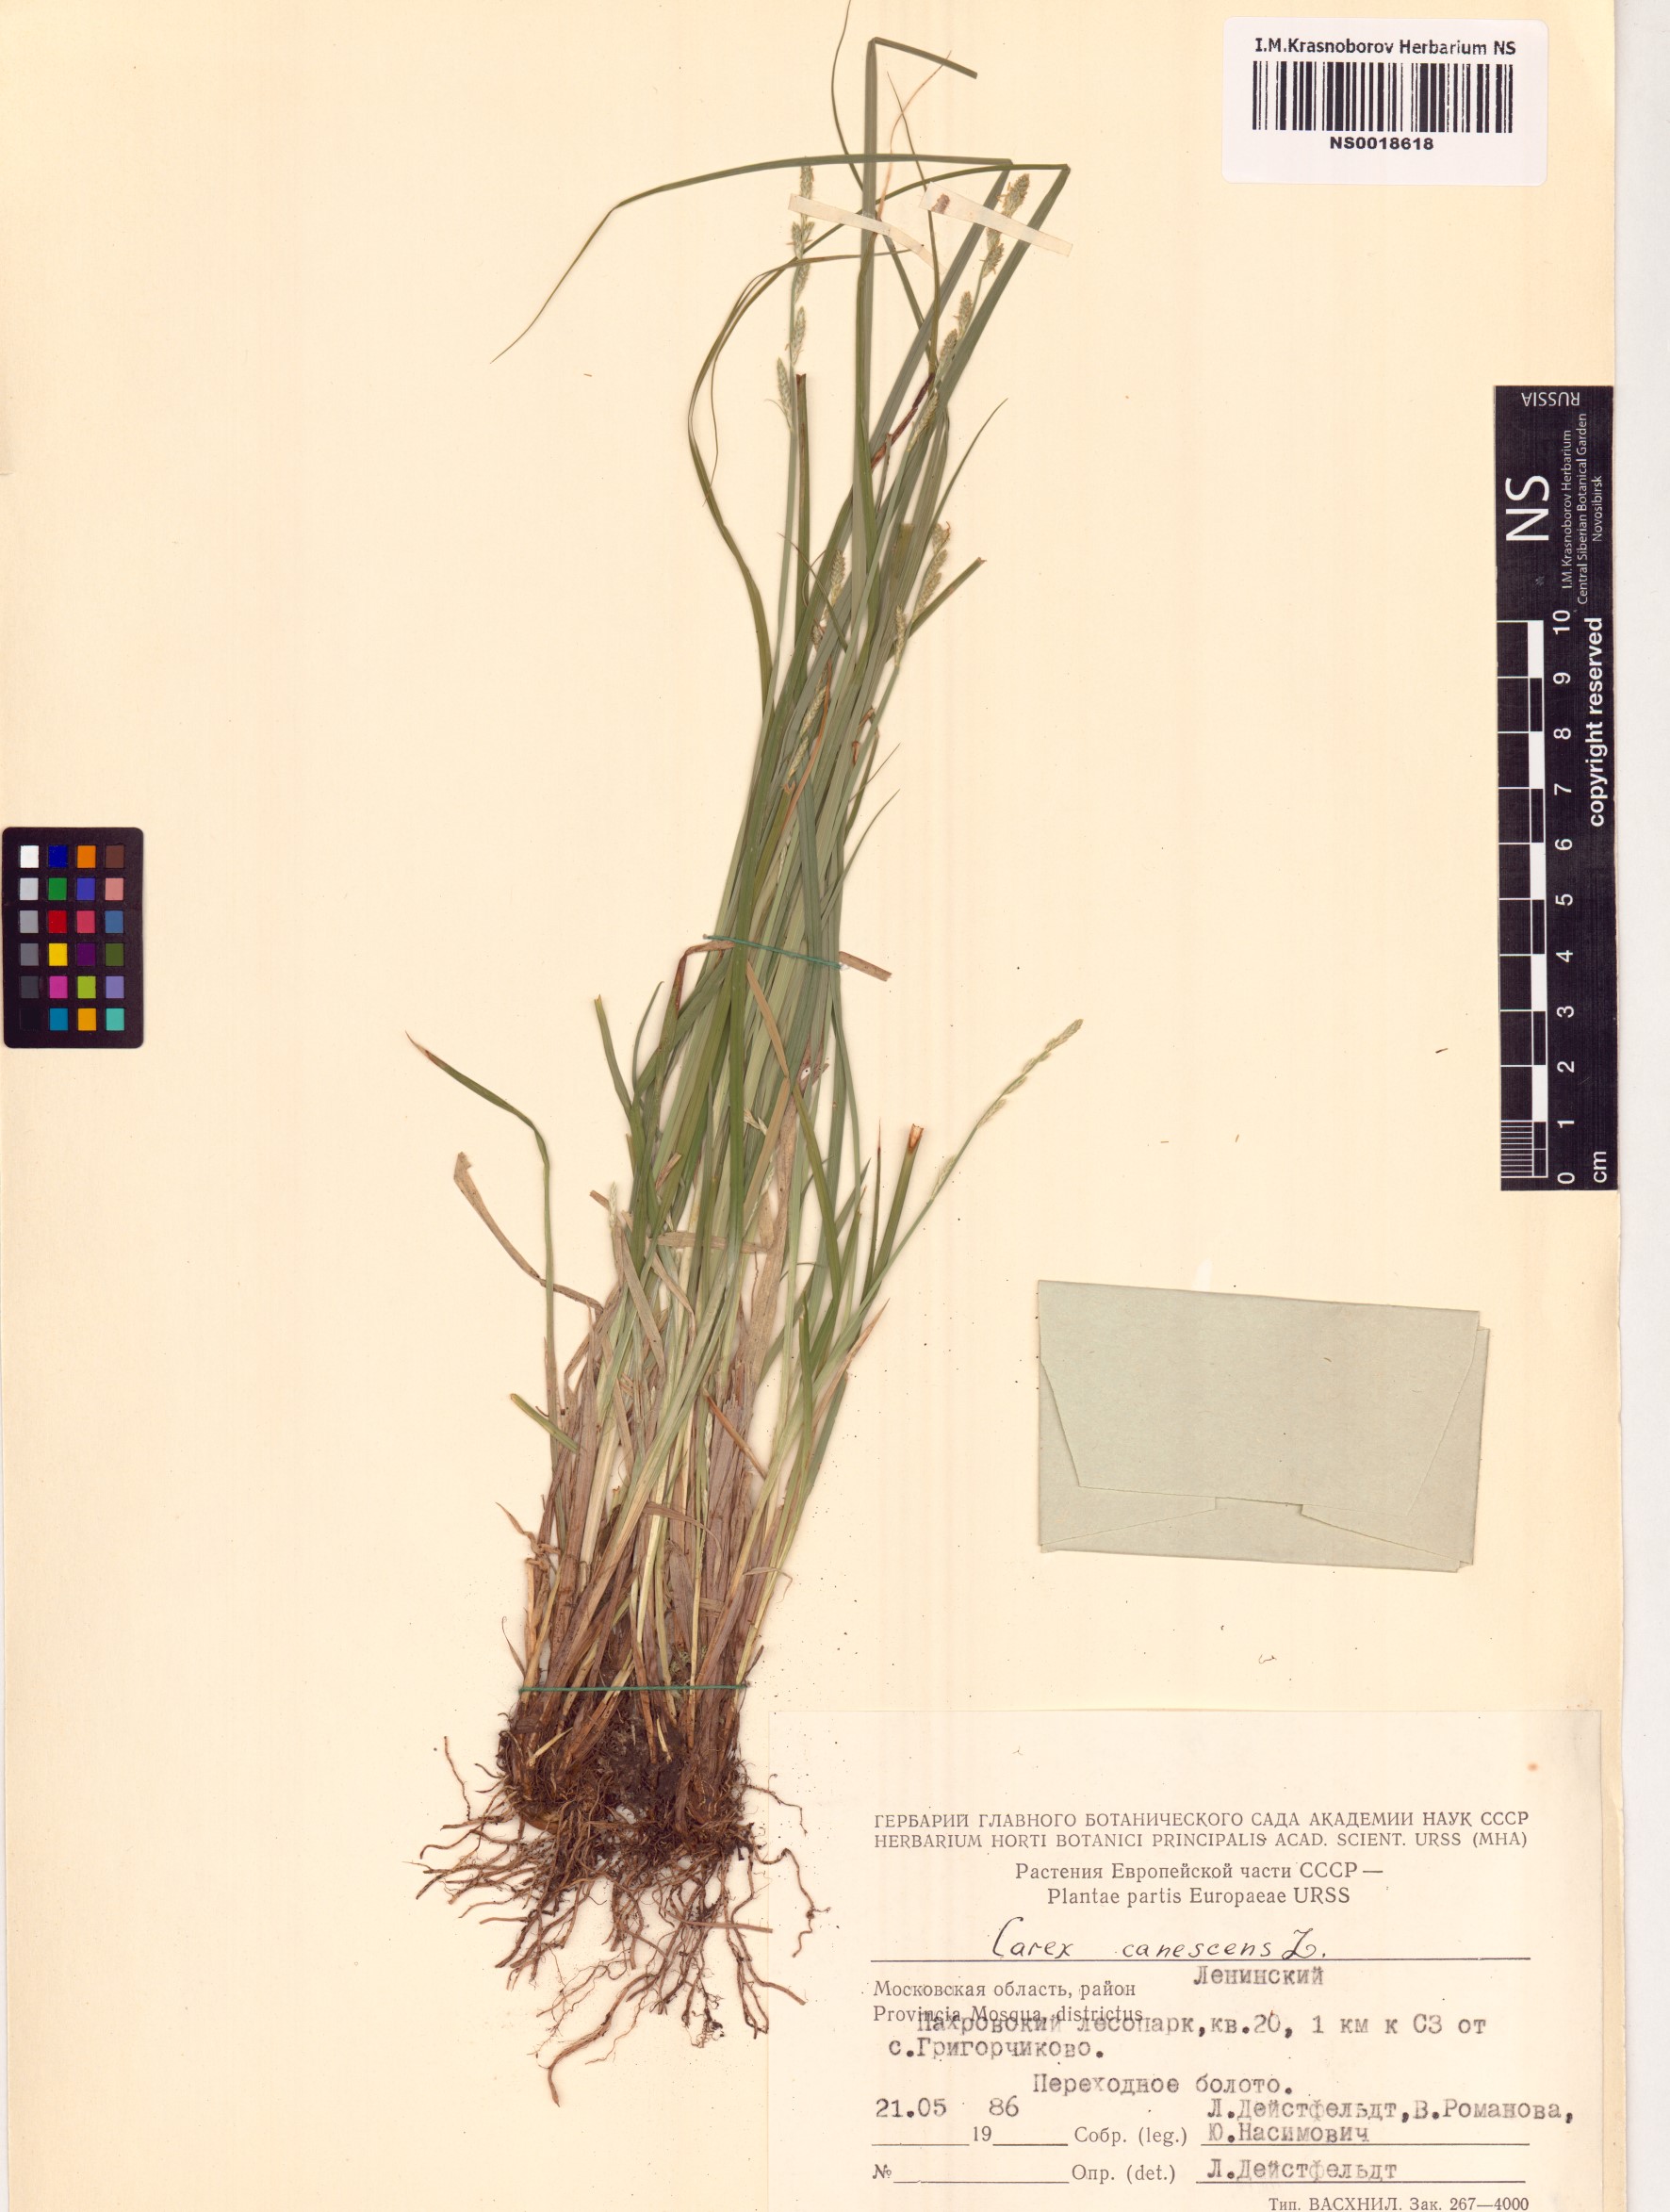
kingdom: Plantae
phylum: Tracheophyta
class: Liliopsida
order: Poales
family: Cyperaceae
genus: Carex
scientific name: Carex canescens
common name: White sedge
